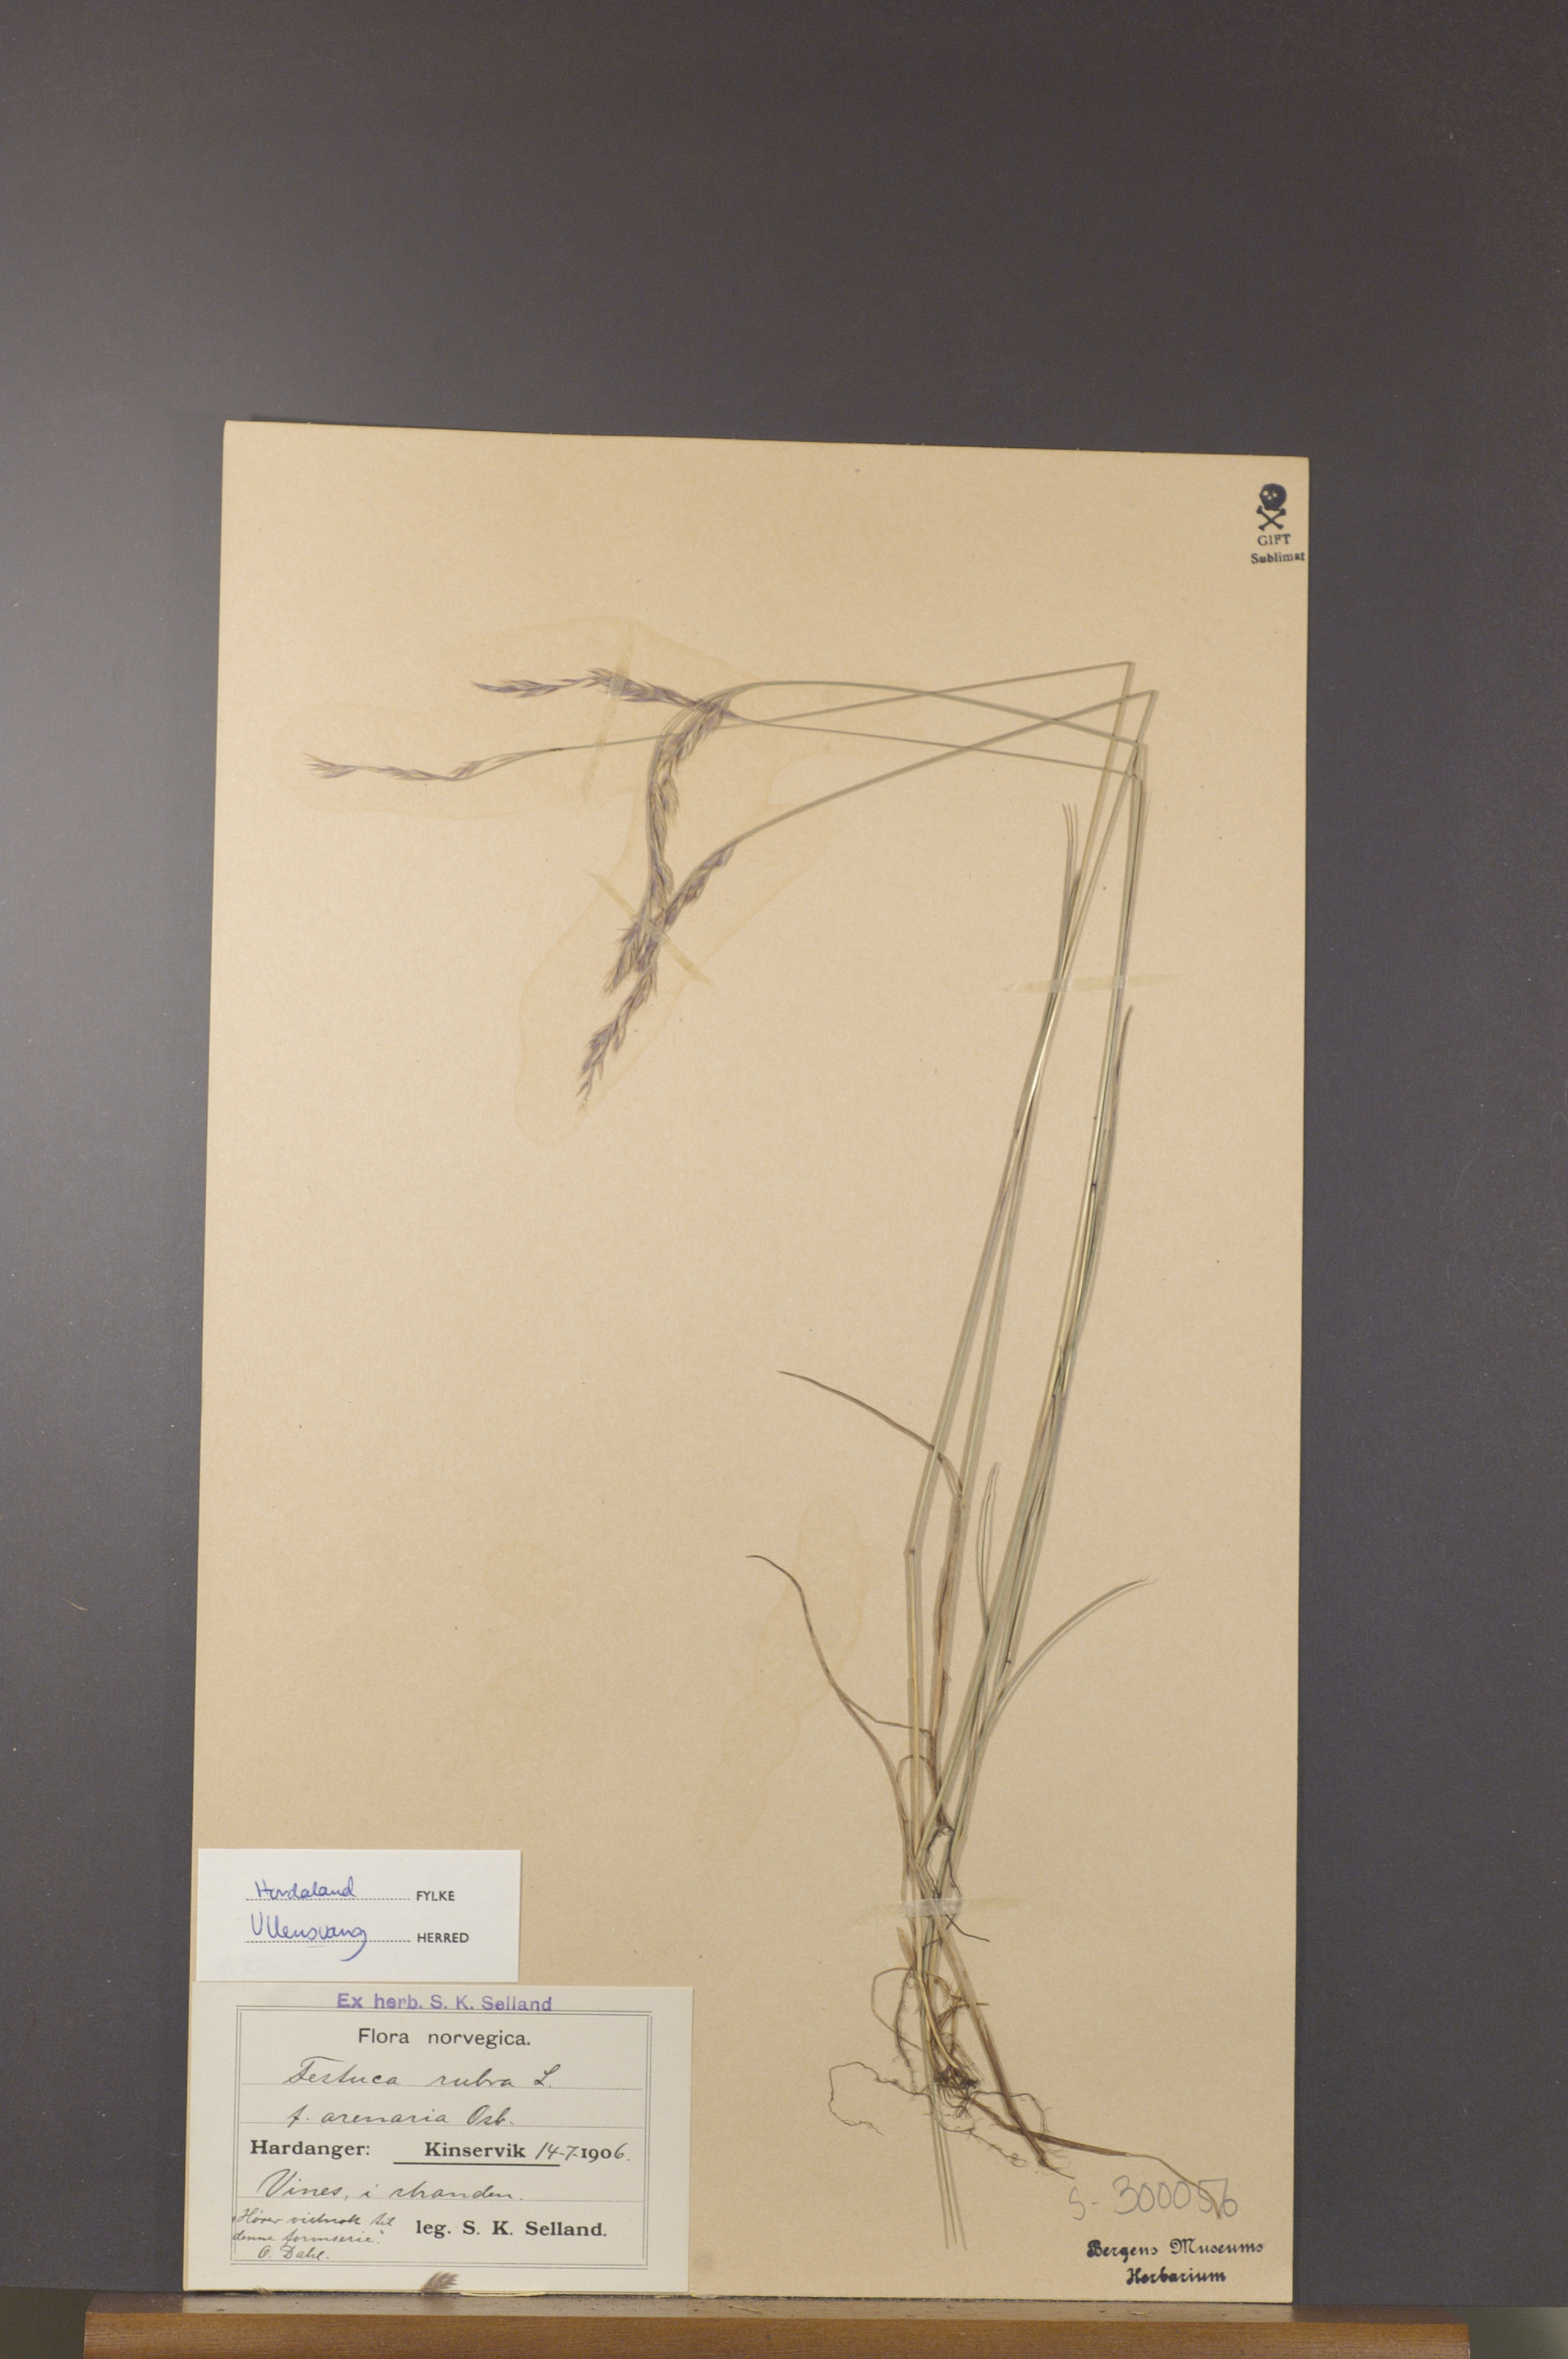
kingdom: Plantae
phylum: Tracheophyta
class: Liliopsida
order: Poales
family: Poaceae
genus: Festuca
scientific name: Festuca rubra
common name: Red fescue
